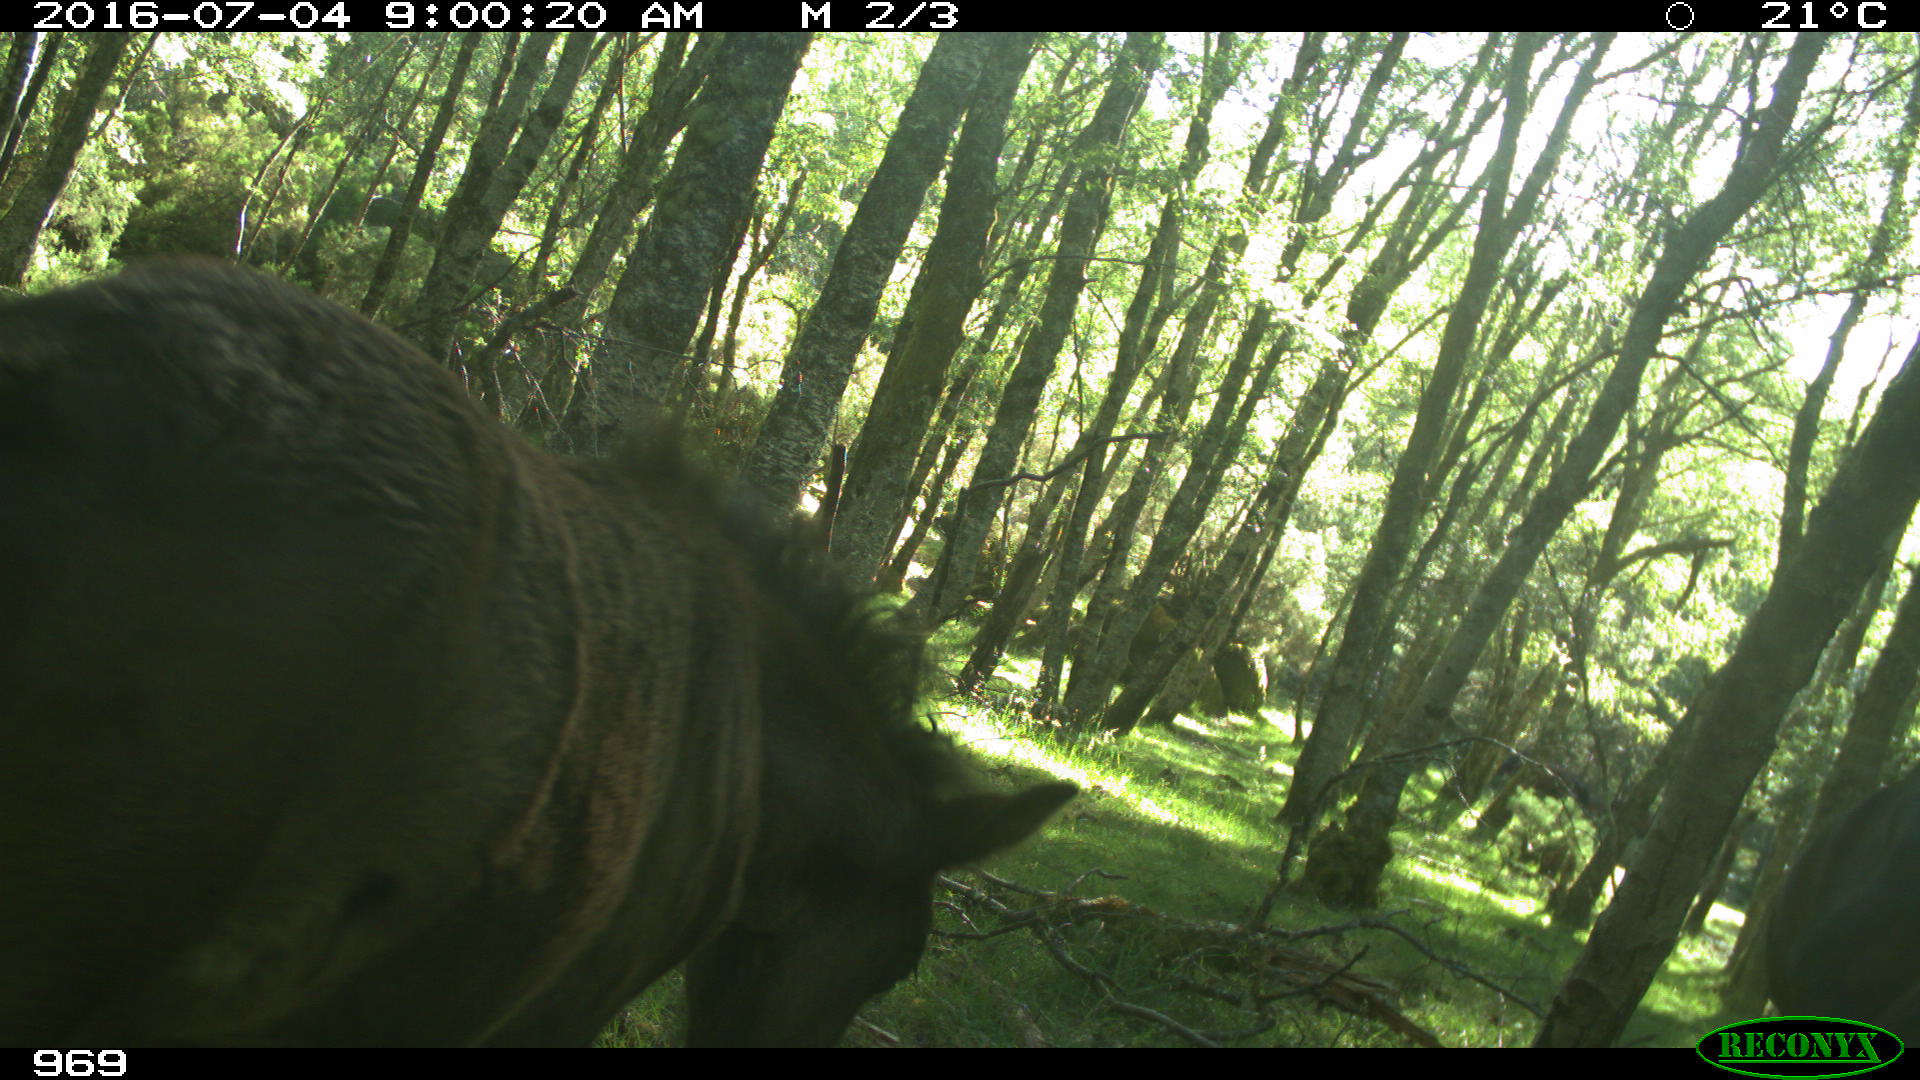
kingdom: Animalia
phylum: Chordata
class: Mammalia
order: Perissodactyla
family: Equidae
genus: Equus
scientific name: Equus caballus
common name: Horse
